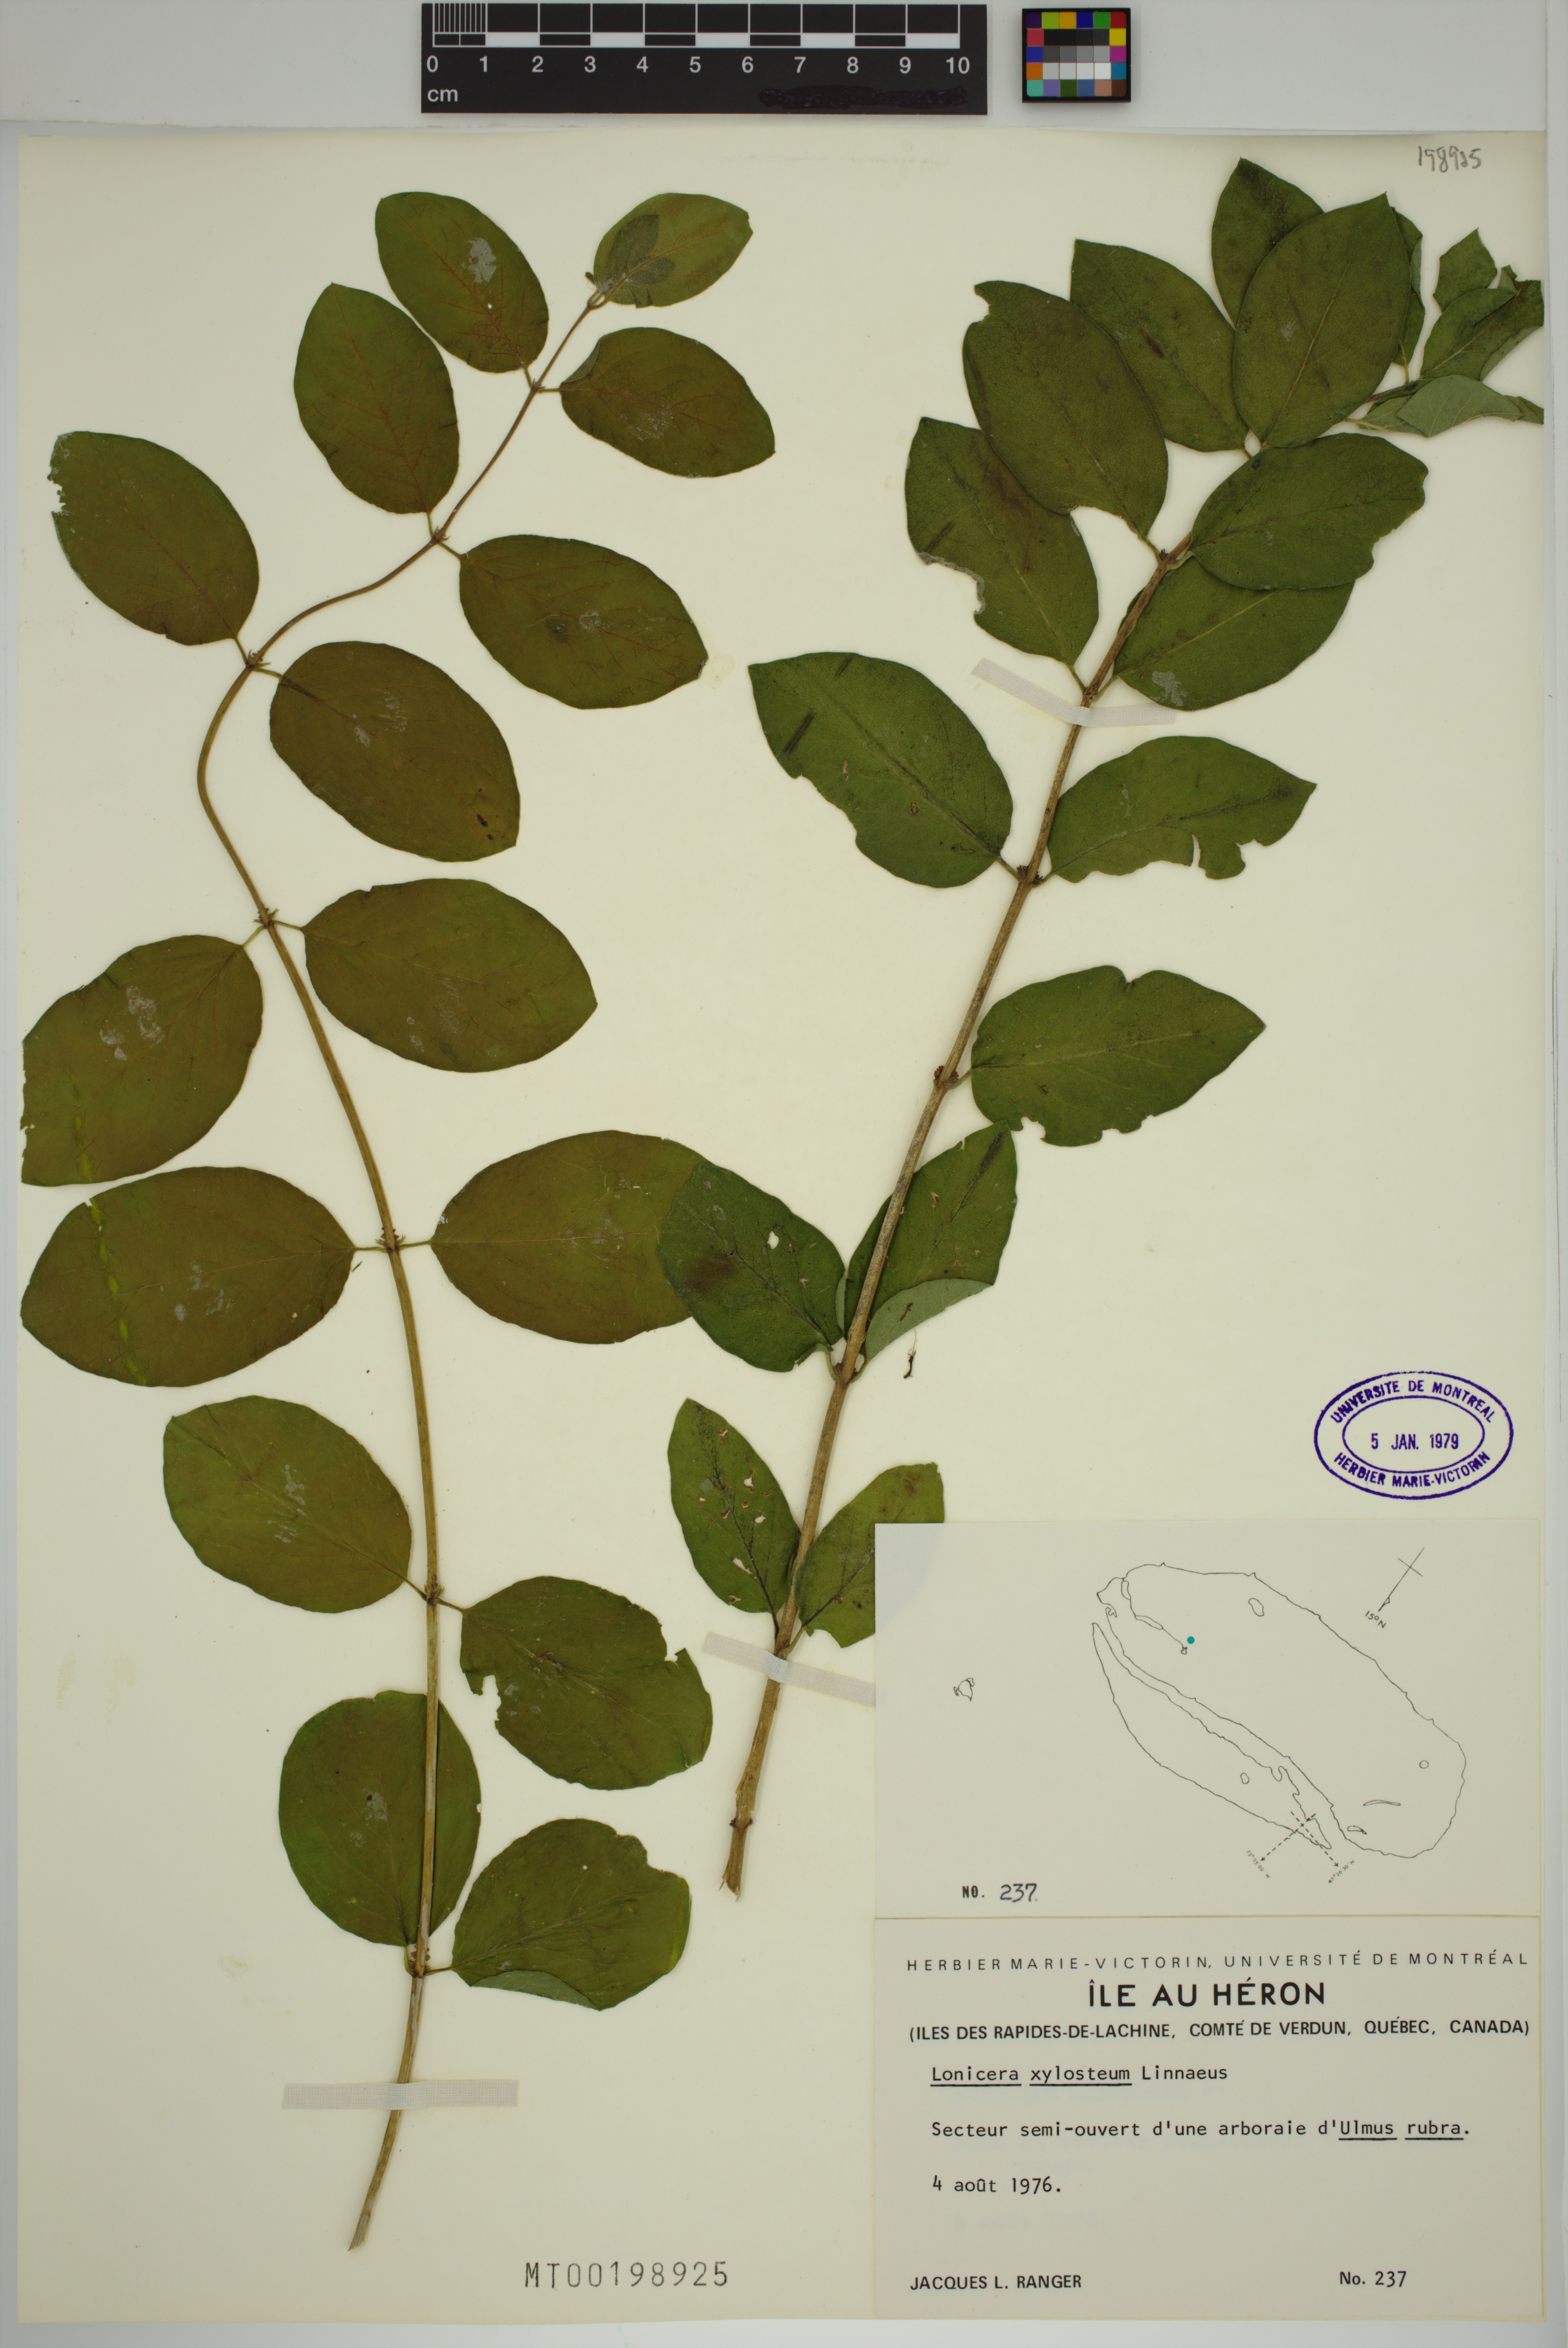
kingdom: Plantae
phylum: Tracheophyta
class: Magnoliopsida
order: Dipsacales
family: Caprifoliaceae
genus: Lonicera
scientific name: Lonicera tatarica
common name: Tatarian honeysuckle
